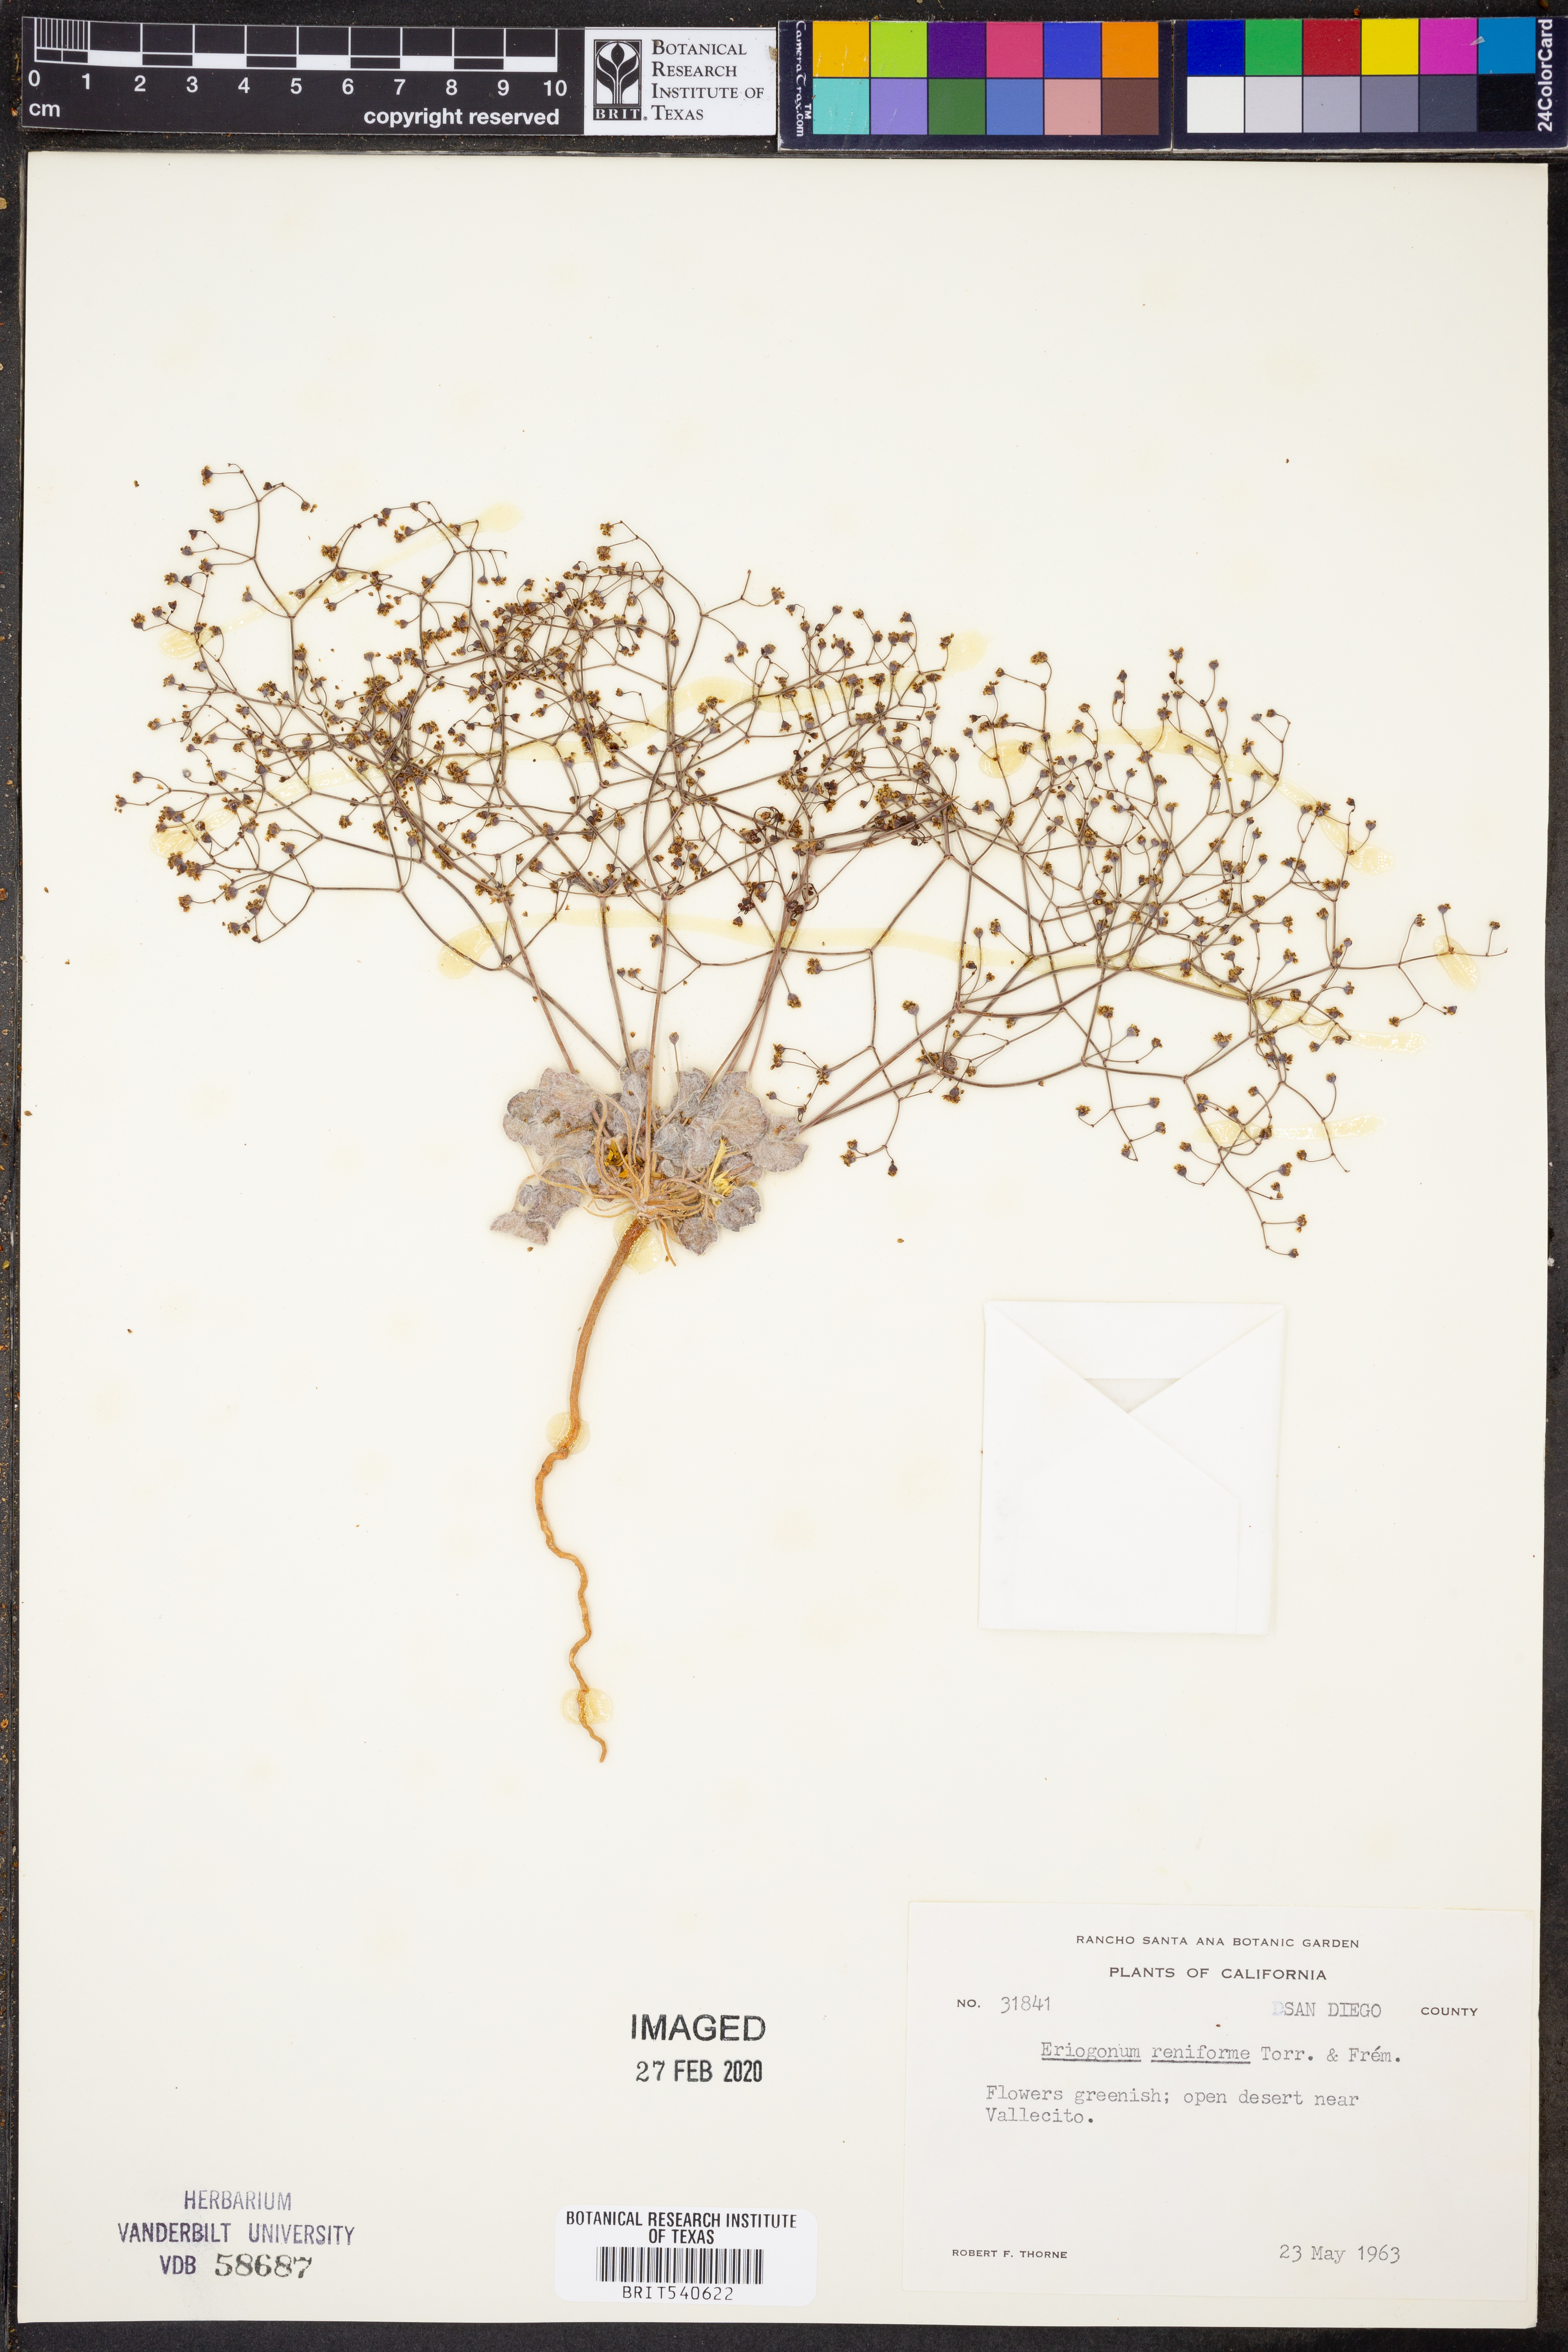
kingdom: Plantae
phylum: Tracheophyta
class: Magnoliopsida
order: Caryophyllales
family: Polygonaceae
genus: Eriogonum
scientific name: Eriogonum reniforme
